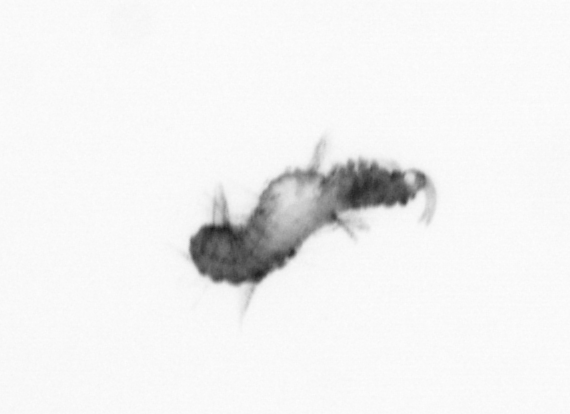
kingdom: Animalia
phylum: Annelida
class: Polychaeta
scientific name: Polychaeta
